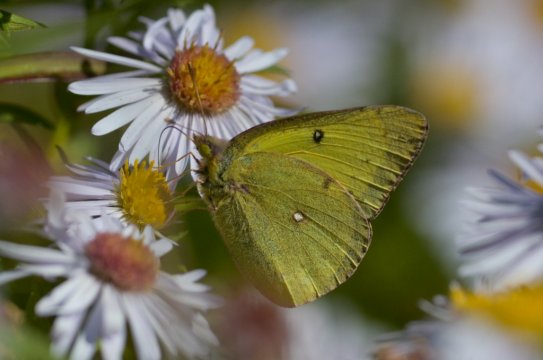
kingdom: Animalia
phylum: Arthropoda
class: Insecta
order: Lepidoptera
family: Pieridae
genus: Colias
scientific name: Colias philodice
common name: Clouded Sulphur
